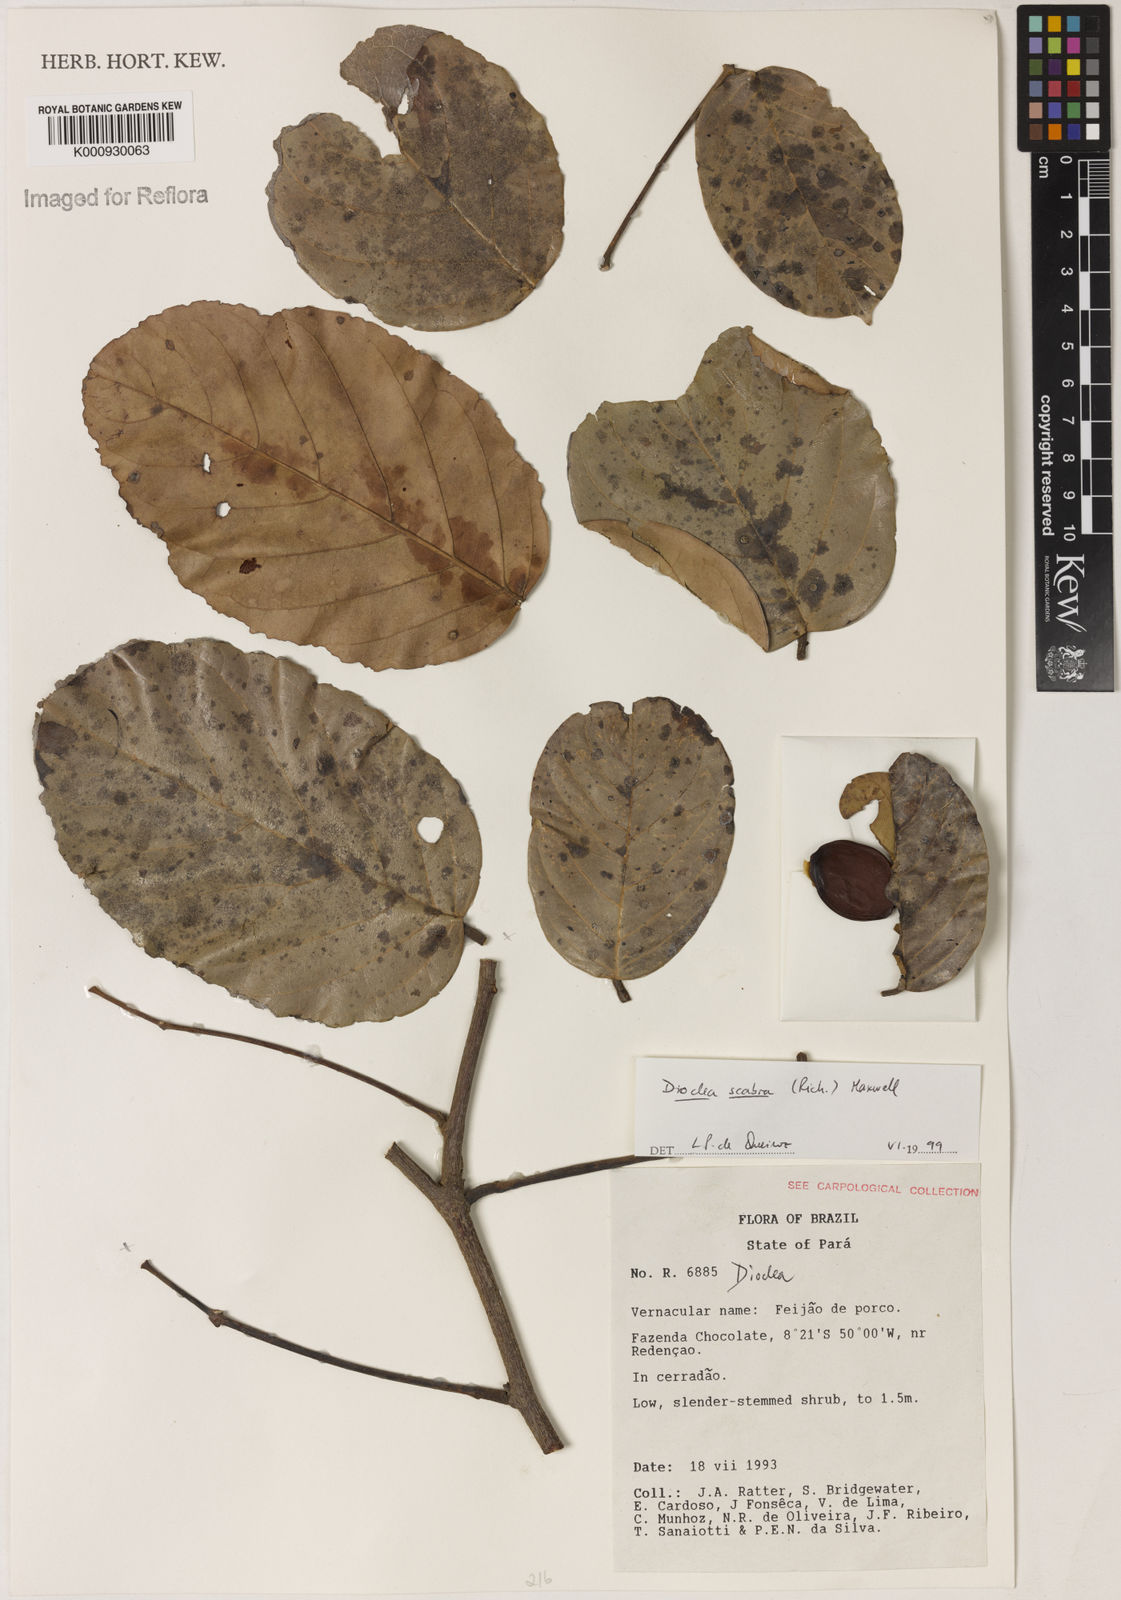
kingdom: Plantae
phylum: Tracheophyta
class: Magnoliopsida
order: Fabales
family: Fabaceae
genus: Macropsychanthus
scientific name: Macropsychanthus scaber
